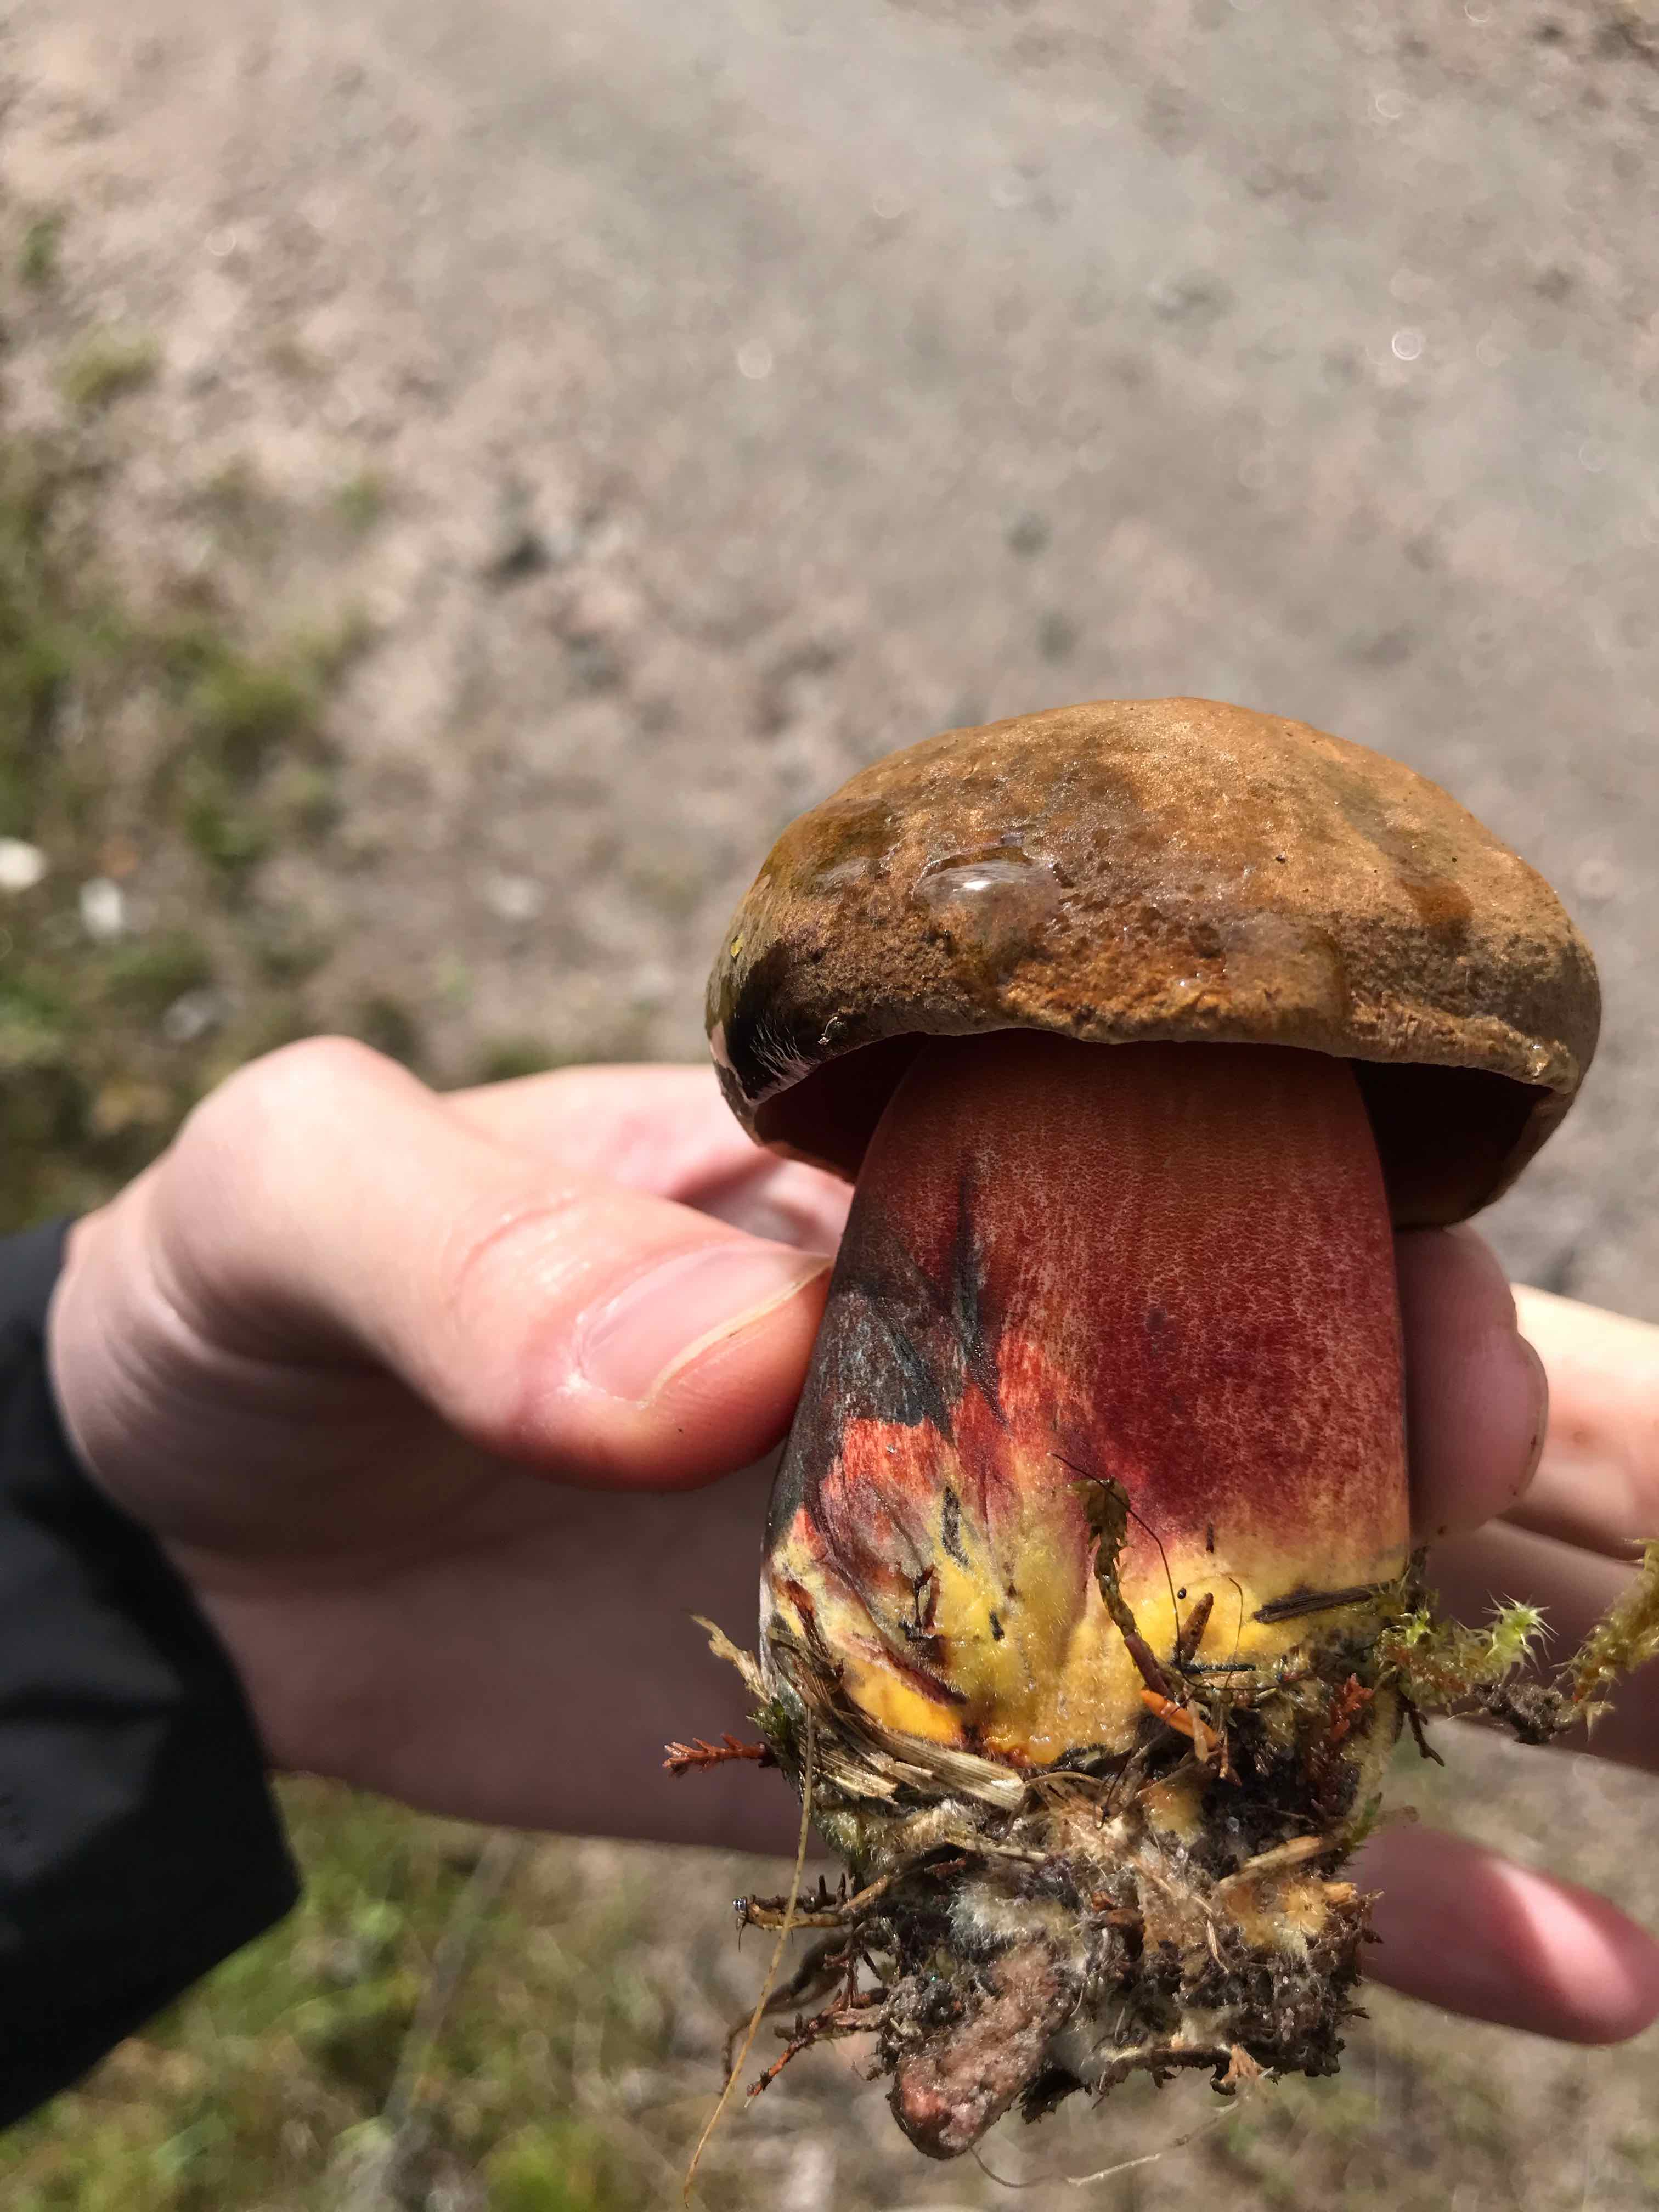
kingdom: Fungi
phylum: Basidiomycota
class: Agaricomycetes
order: Boletales
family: Boletaceae
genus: Neoboletus
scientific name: Neoboletus erythropus
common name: punktstokket indigorørhat
